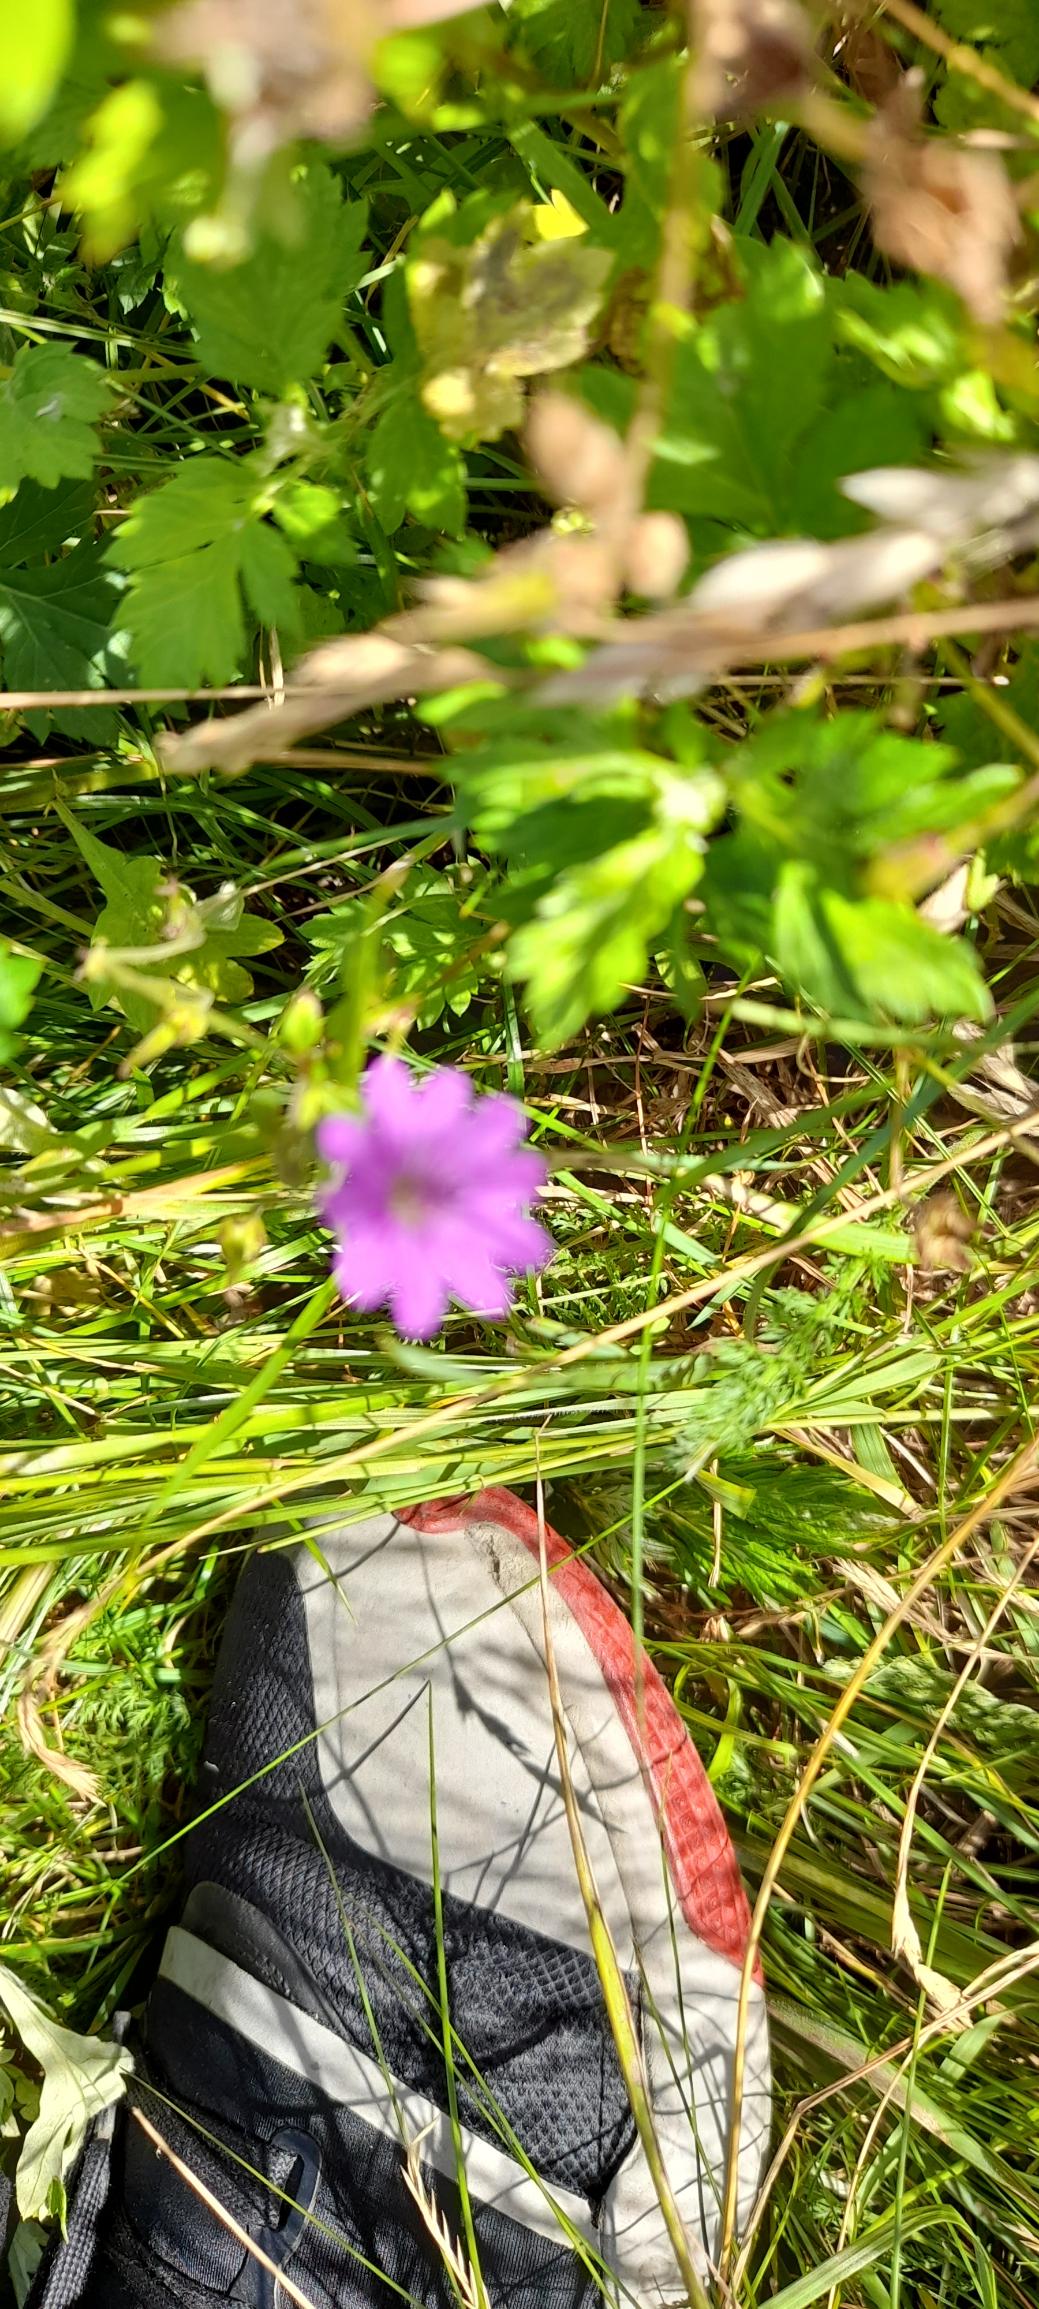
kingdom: Plantae
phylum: Tracheophyta
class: Magnoliopsida
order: Geraniales
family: Geraniaceae
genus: Geranium
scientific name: Geranium pyrenaicum
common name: Pyrenæisk storkenæb
